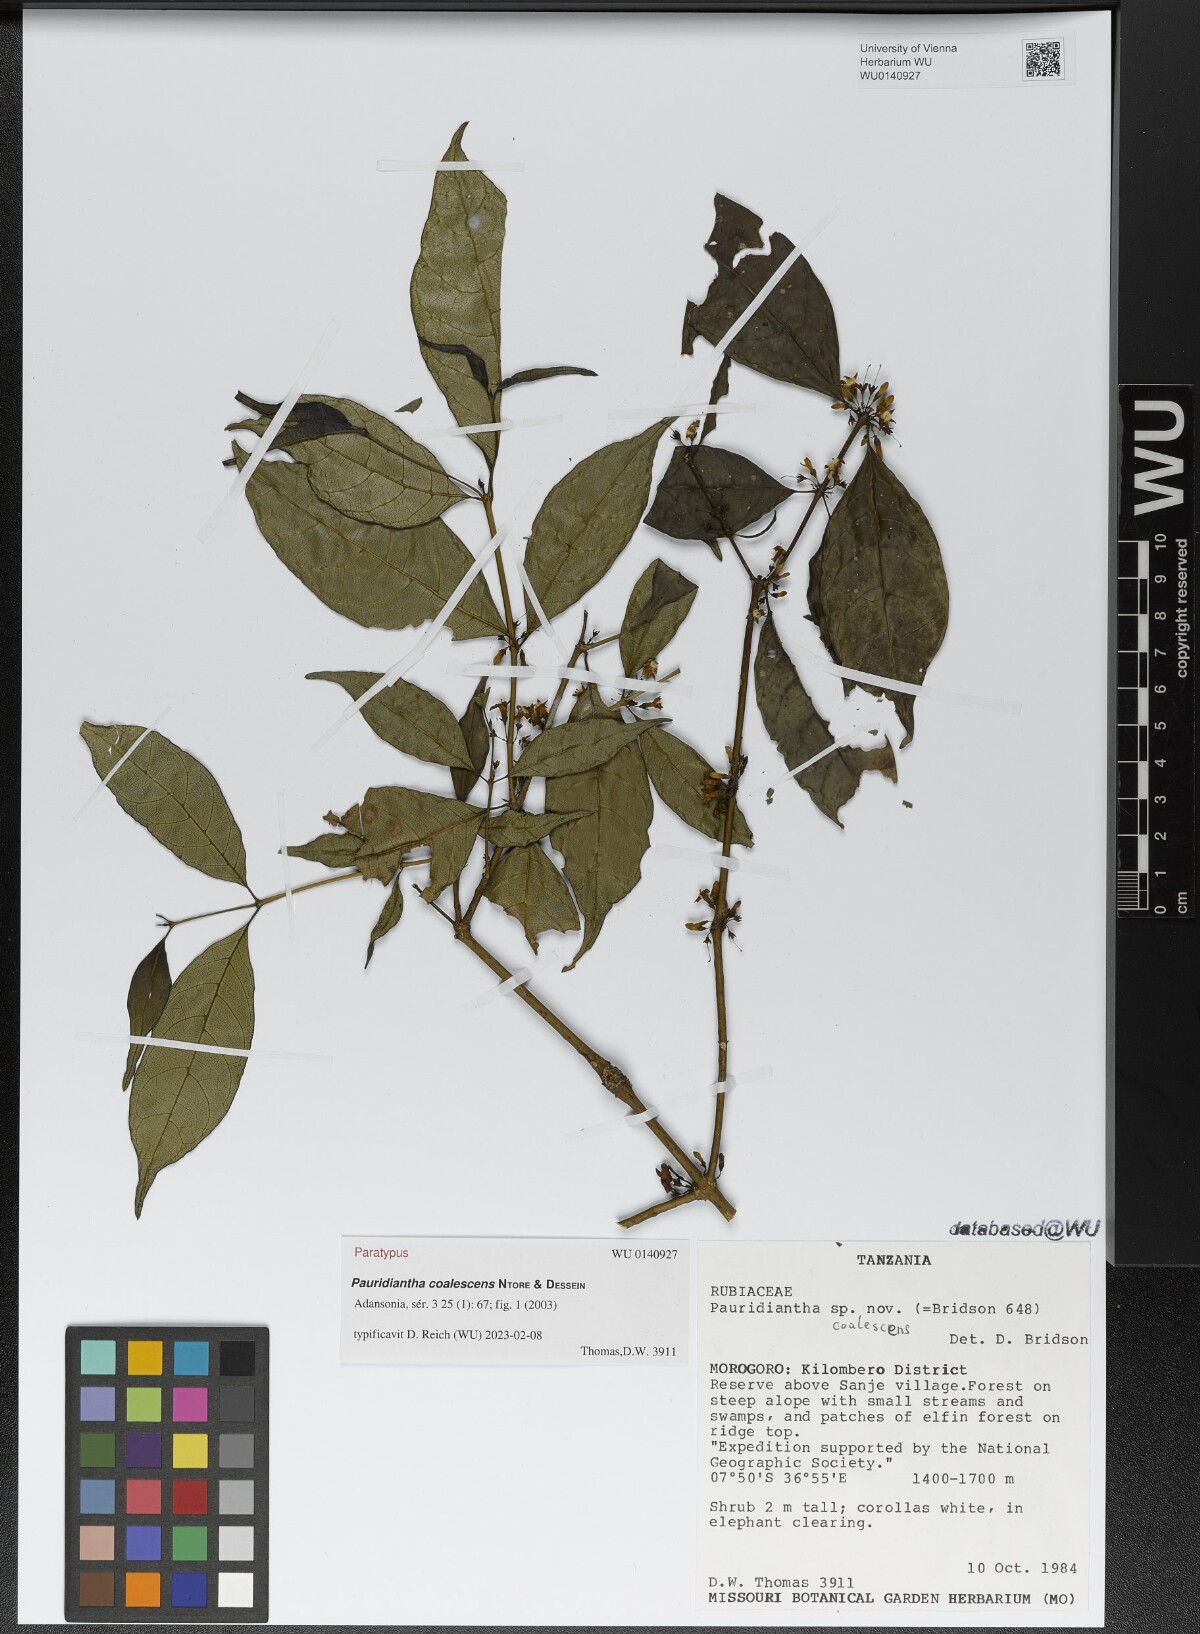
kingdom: Plantae
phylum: Tracheophyta
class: Magnoliopsida
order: Gentianales
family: Rubiaceae
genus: Pauridiantha
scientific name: Pauridiantha coalescens
